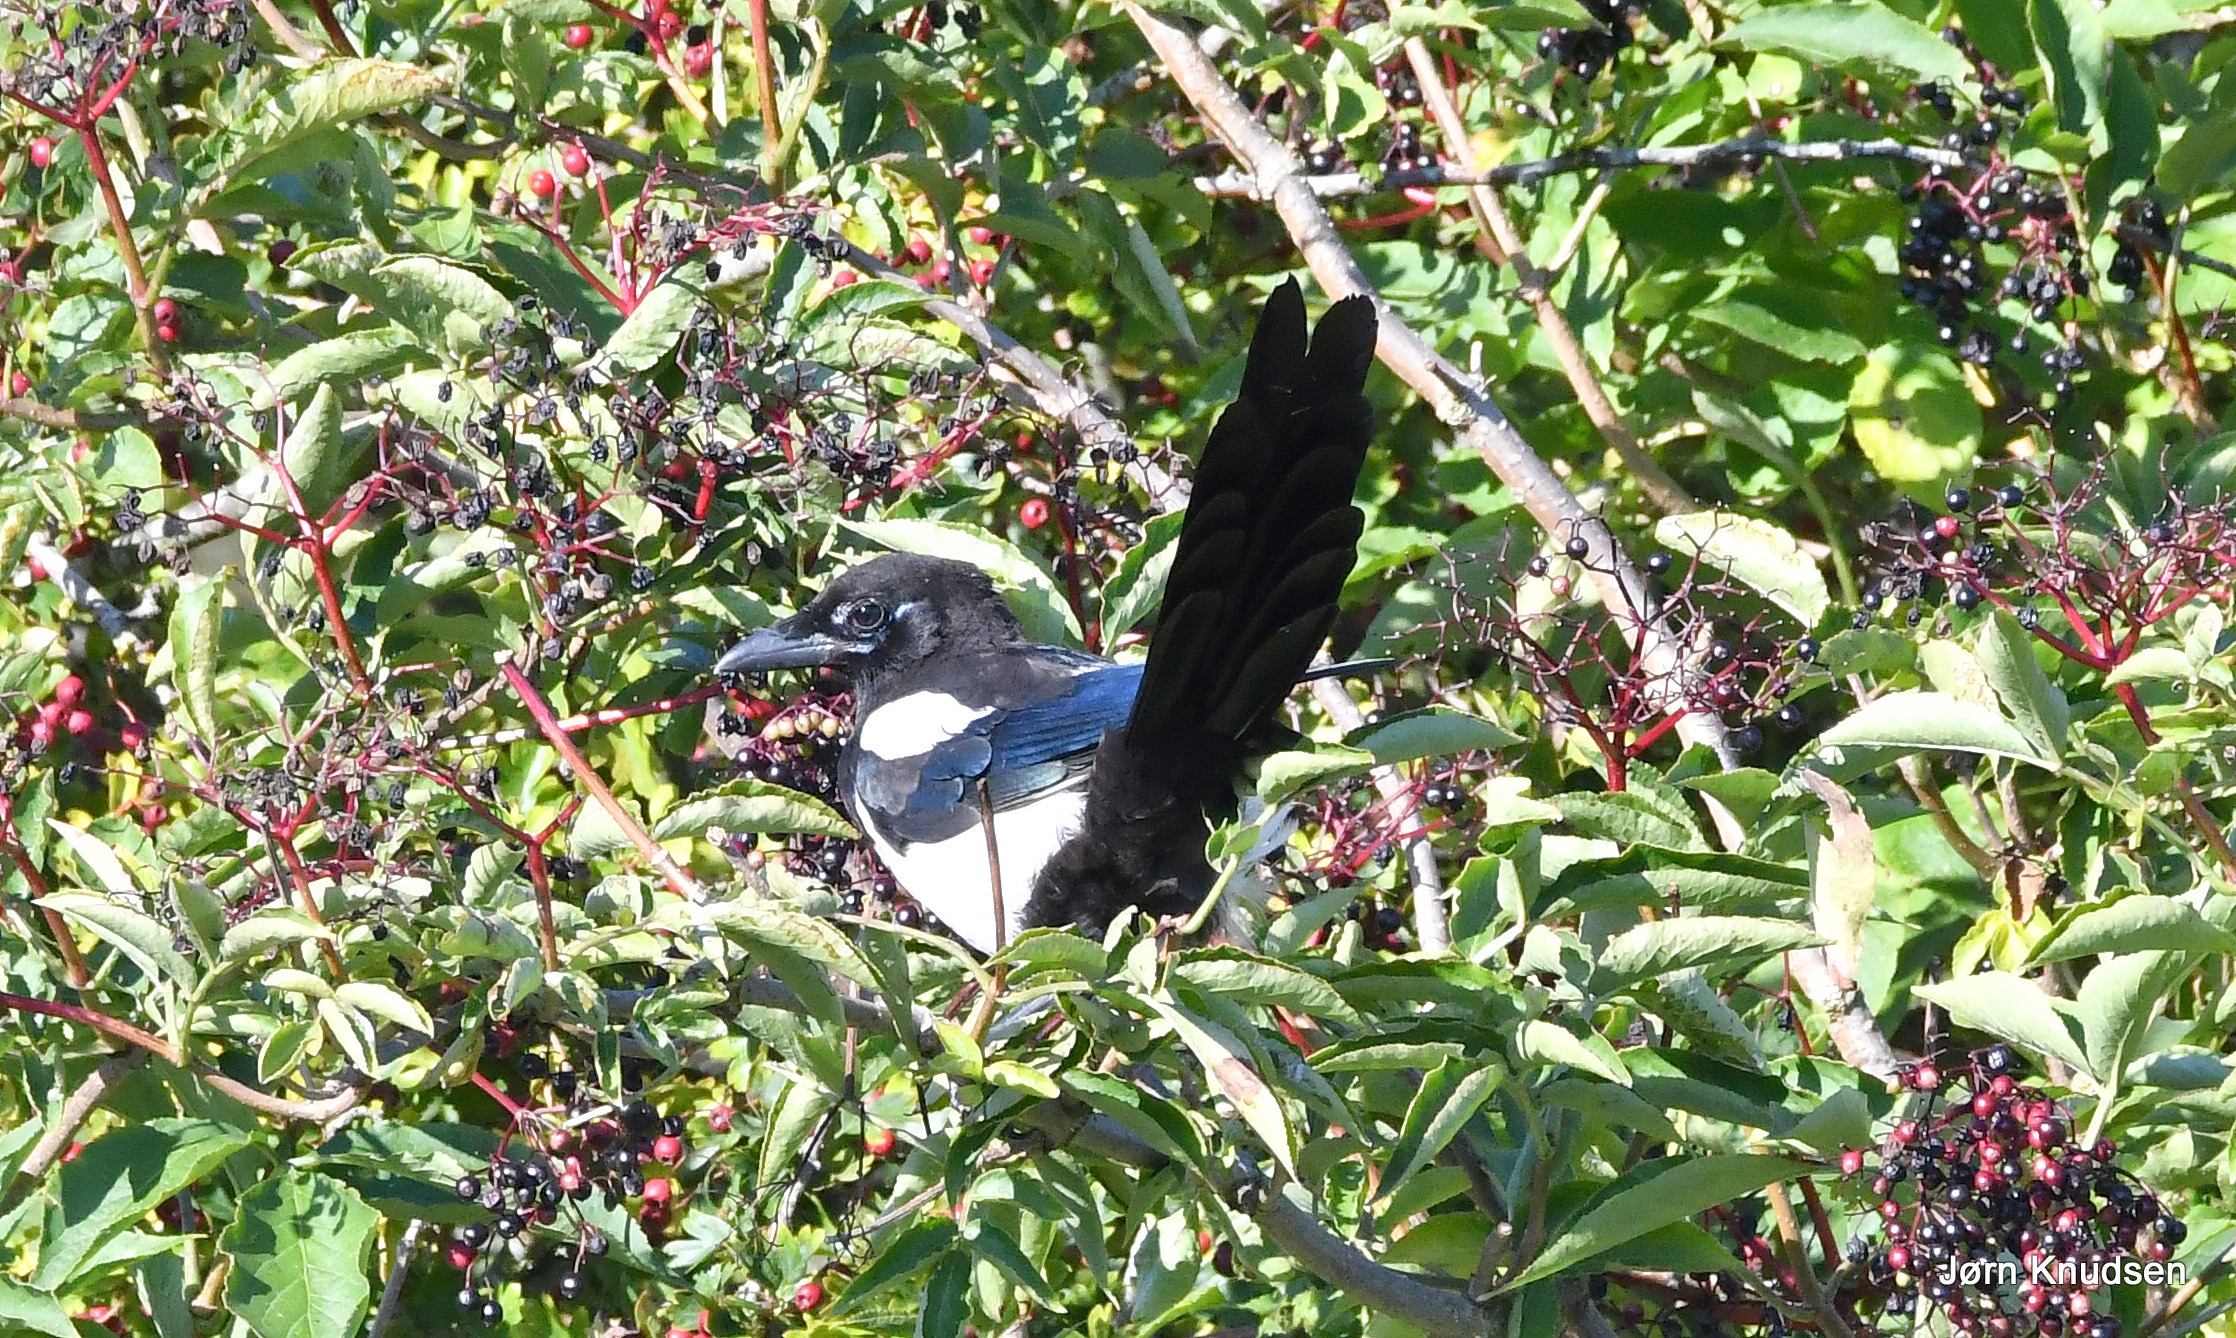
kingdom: Animalia
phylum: Chordata
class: Aves
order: Passeriformes
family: Corvidae
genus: Pica
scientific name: Pica pica
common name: Husskade
